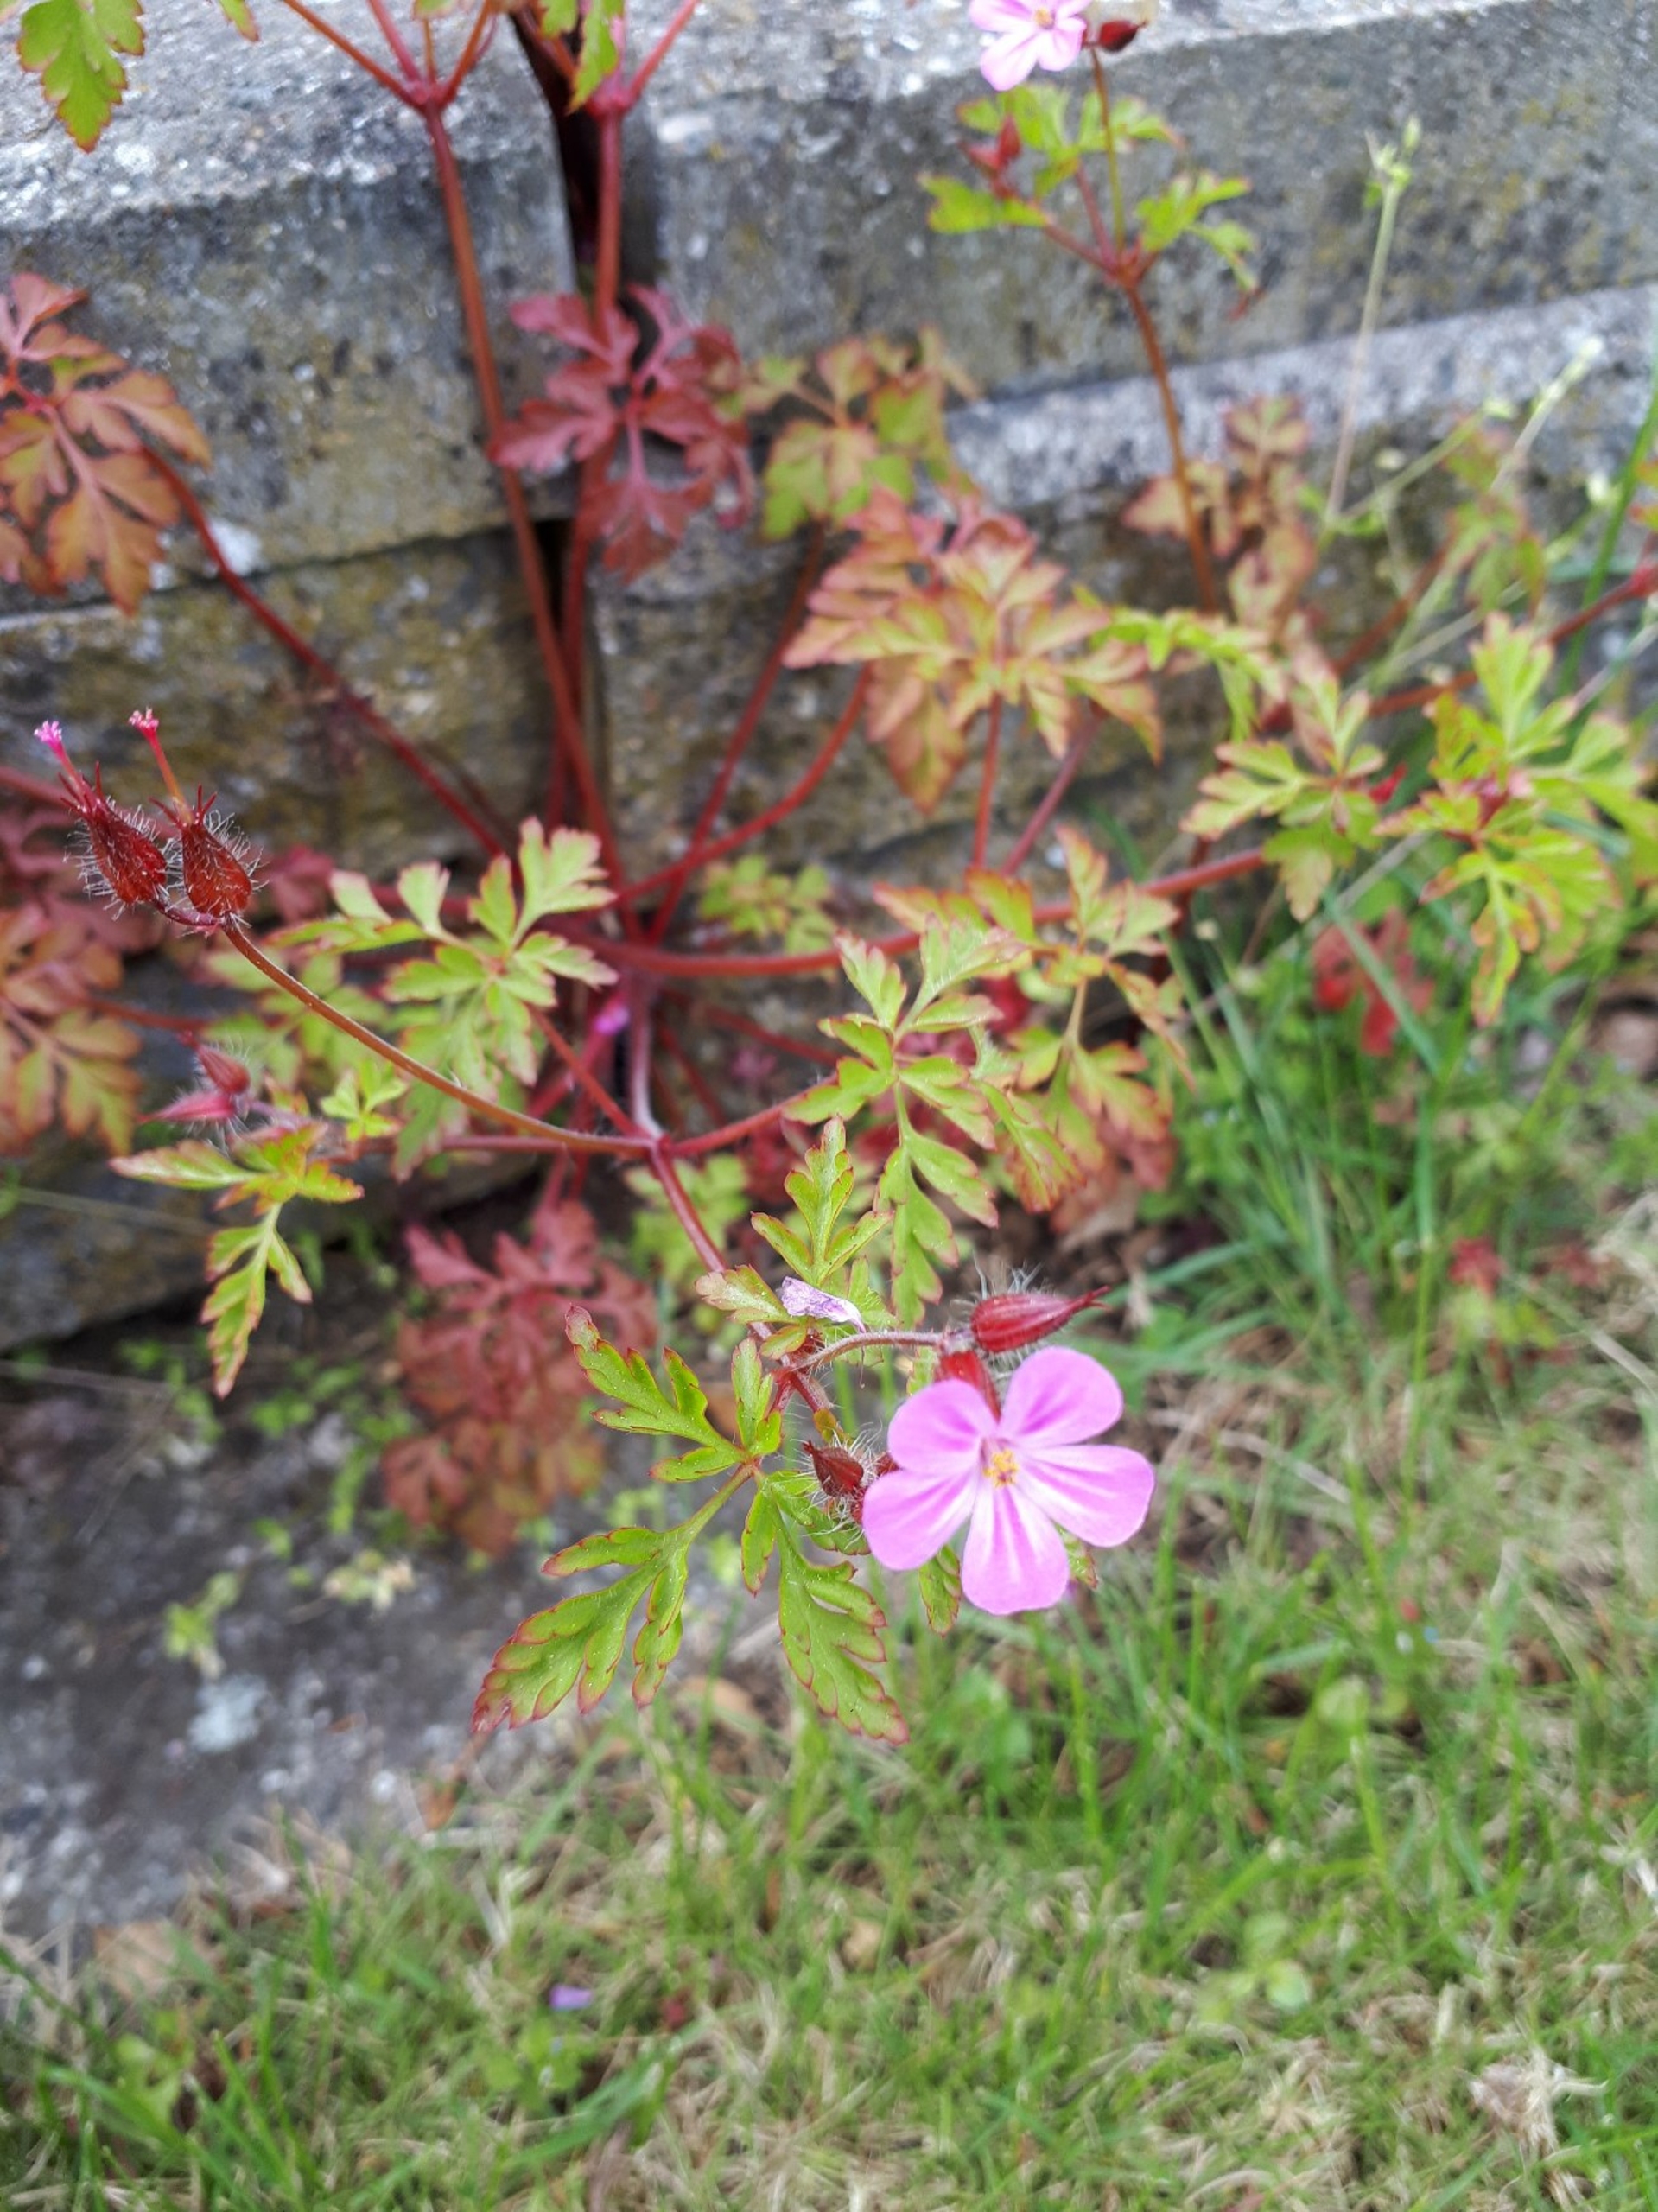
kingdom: Plantae
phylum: Tracheophyta
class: Magnoliopsida
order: Geraniales
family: Geraniaceae
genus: Geranium
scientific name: Geranium robertianum
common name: Stinkende storkenæb
